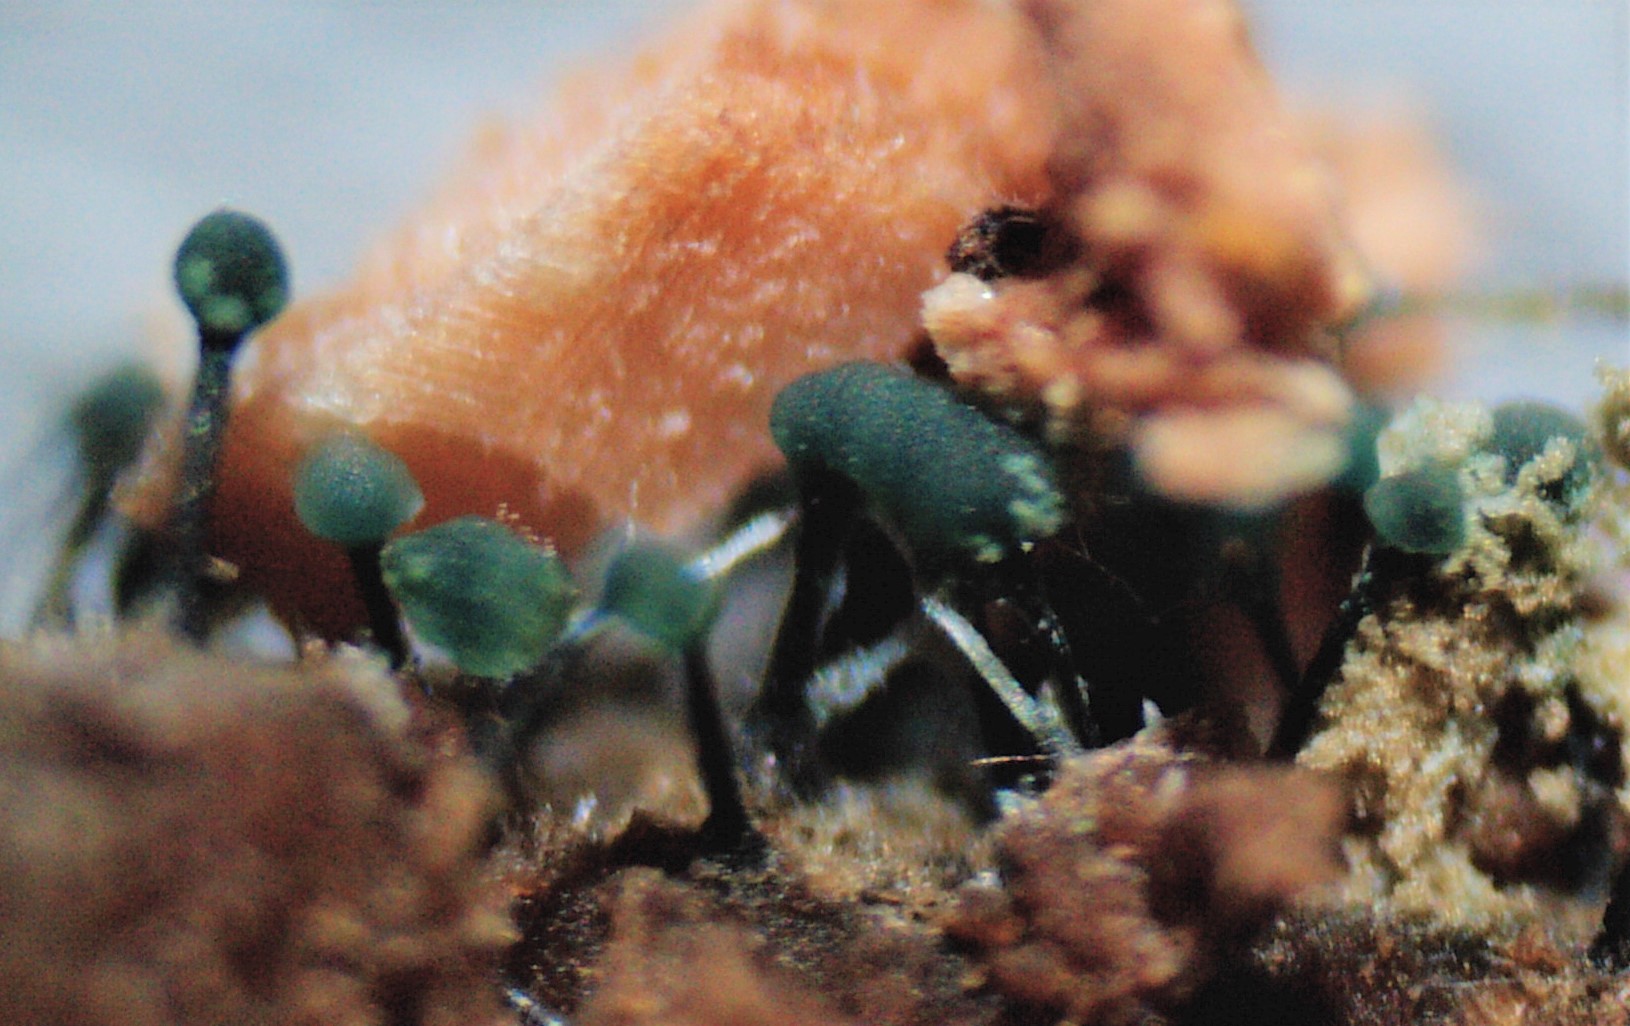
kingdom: Fungi
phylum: Ascomycota
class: Leotiomycetes
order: Leotiales
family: Tympanidaceae
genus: Dendrostilbella
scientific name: Dendrostilbella smaragdina
